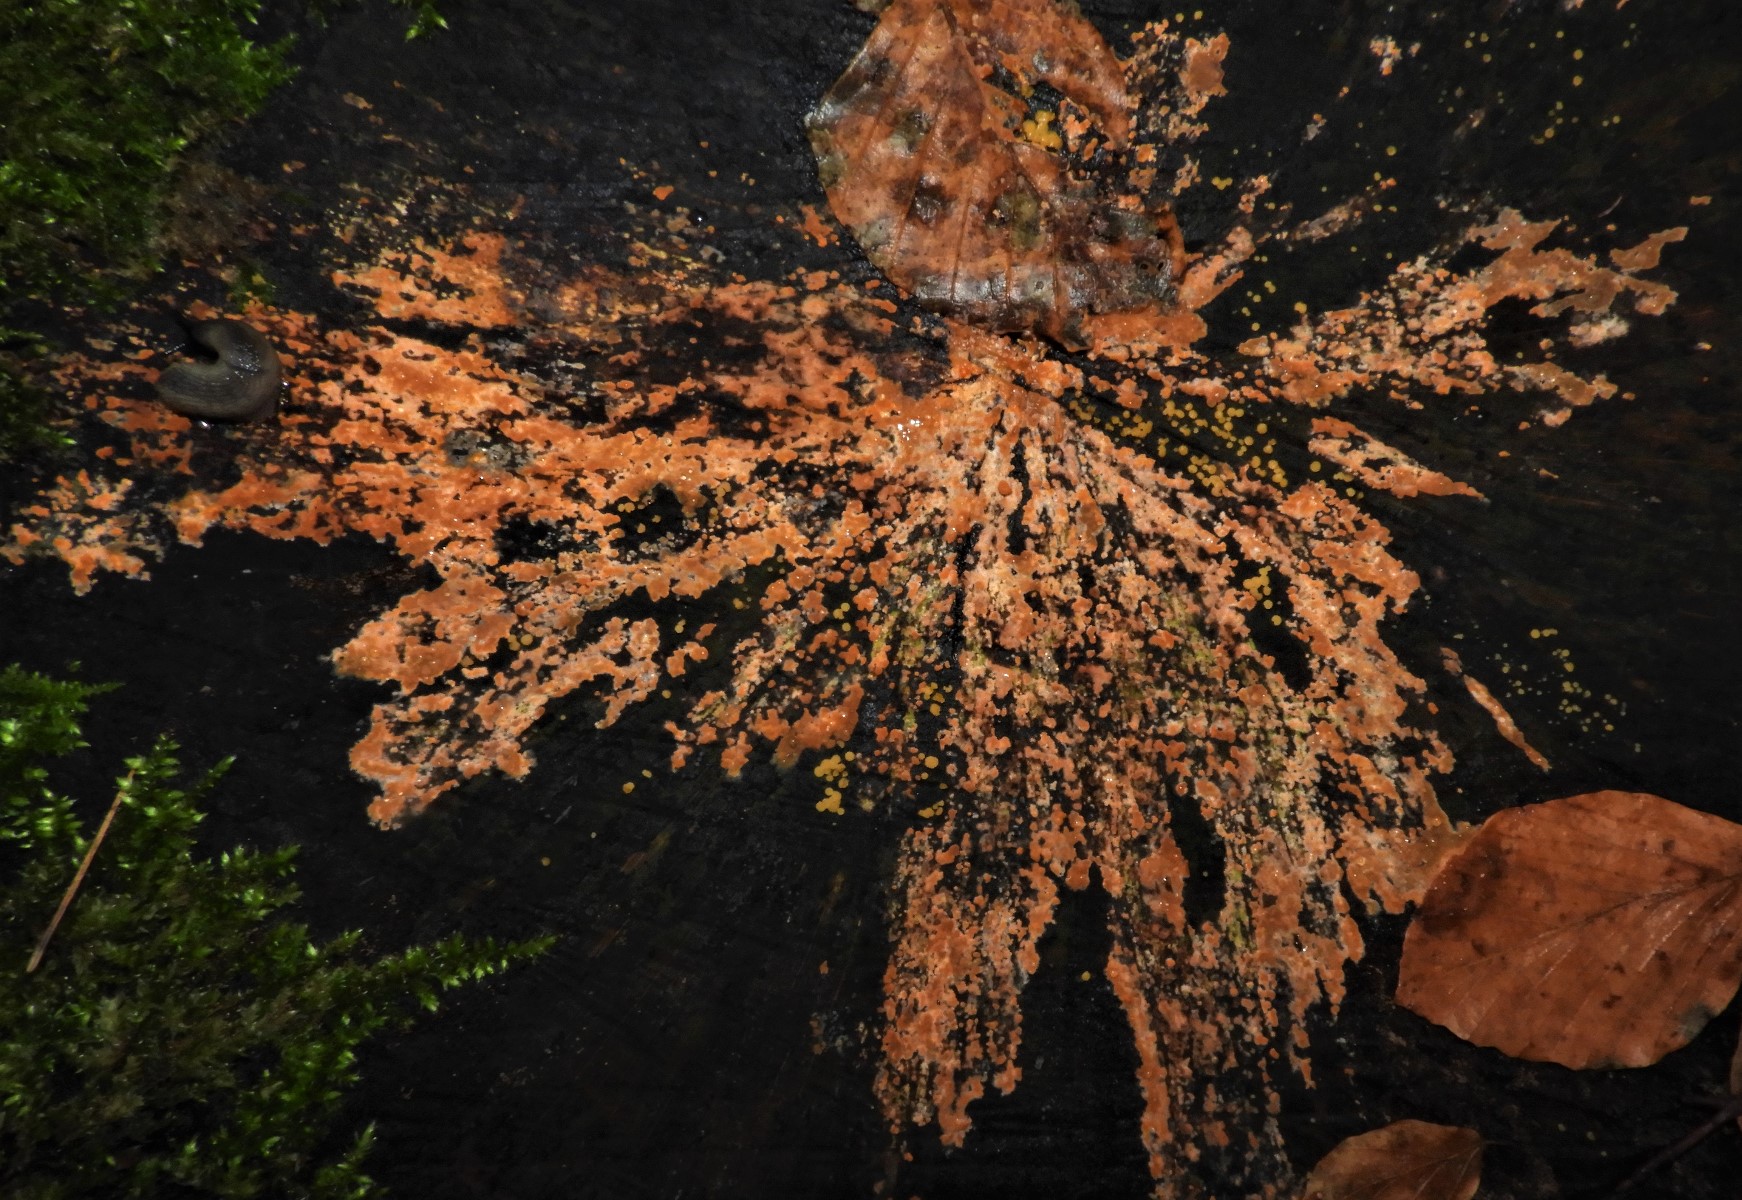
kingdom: Fungi
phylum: Basidiomycota
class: Agaricomycetes
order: Russulales
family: Peniophoraceae
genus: Peniophora
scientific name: Peniophora incarnata
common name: laksefarvet voksskind
